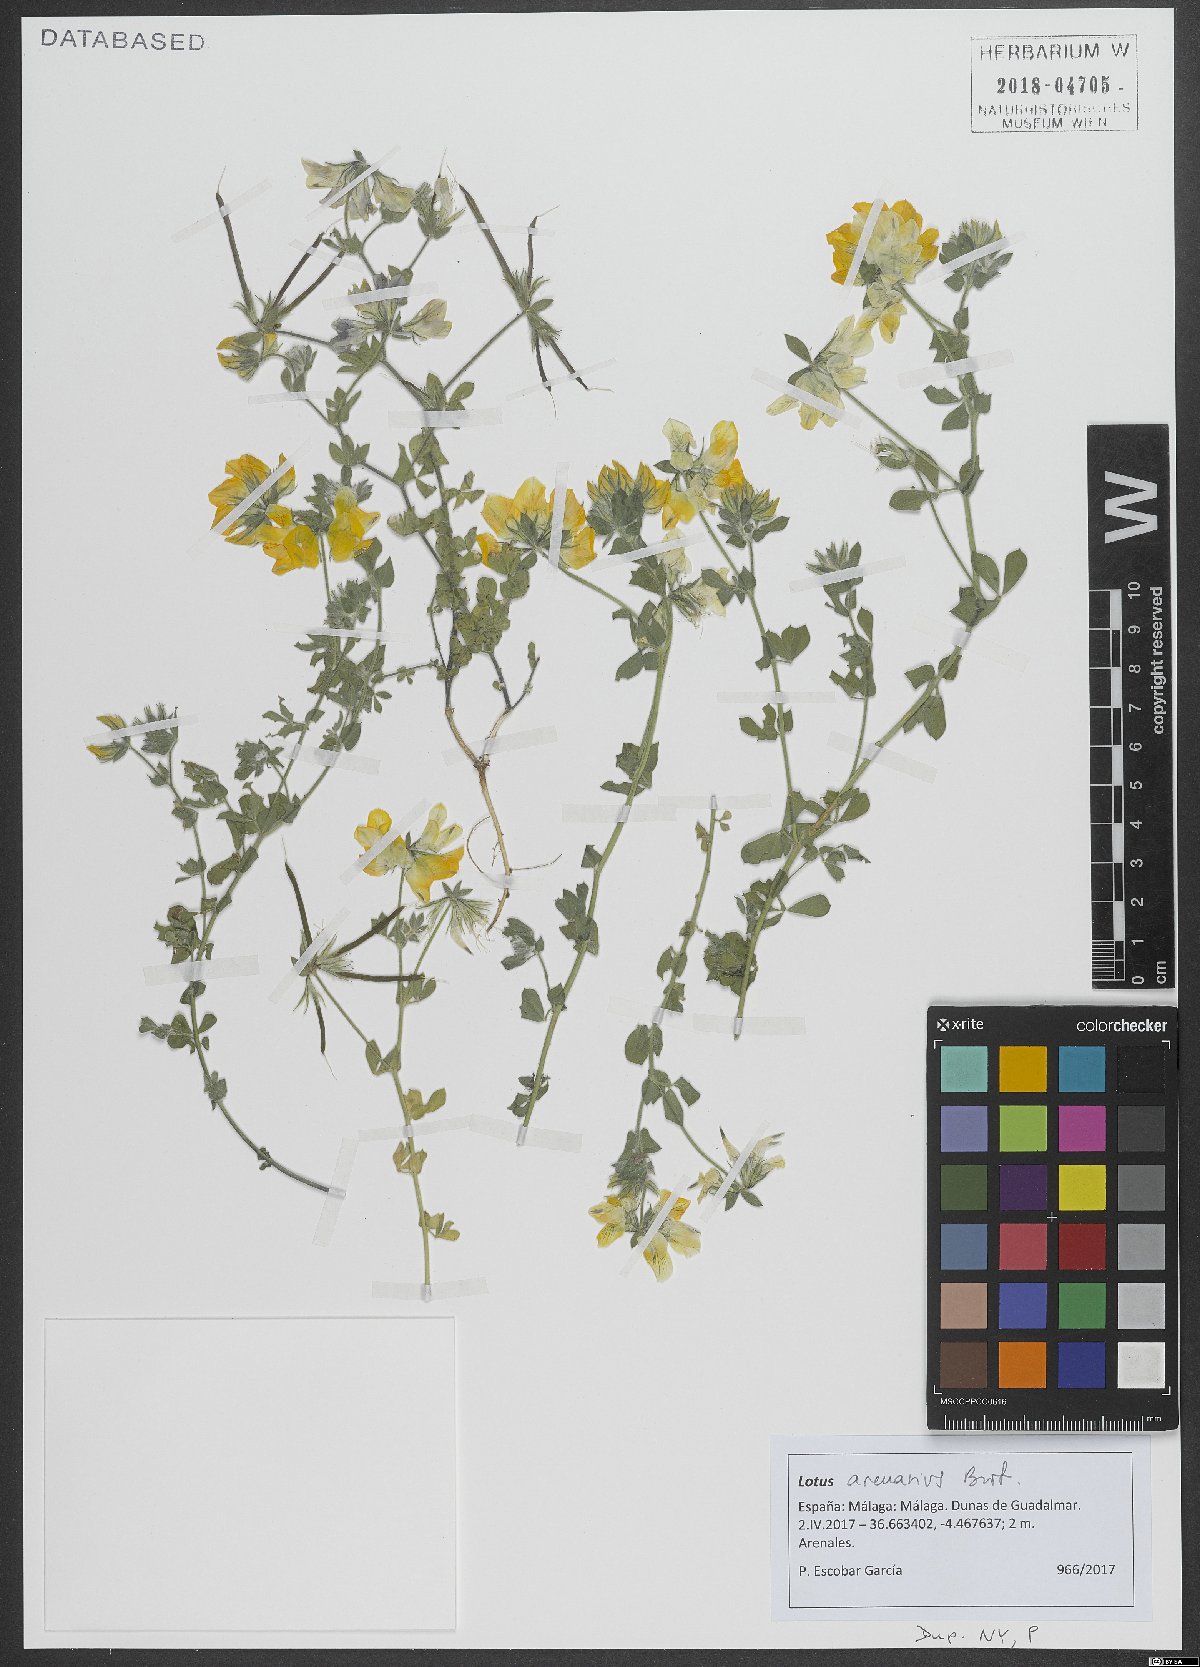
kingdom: Plantae
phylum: Tracheophyta
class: Magnoliopsida
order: Fabales
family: Fabaceae
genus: Lotus
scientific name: Lotus arenarius
